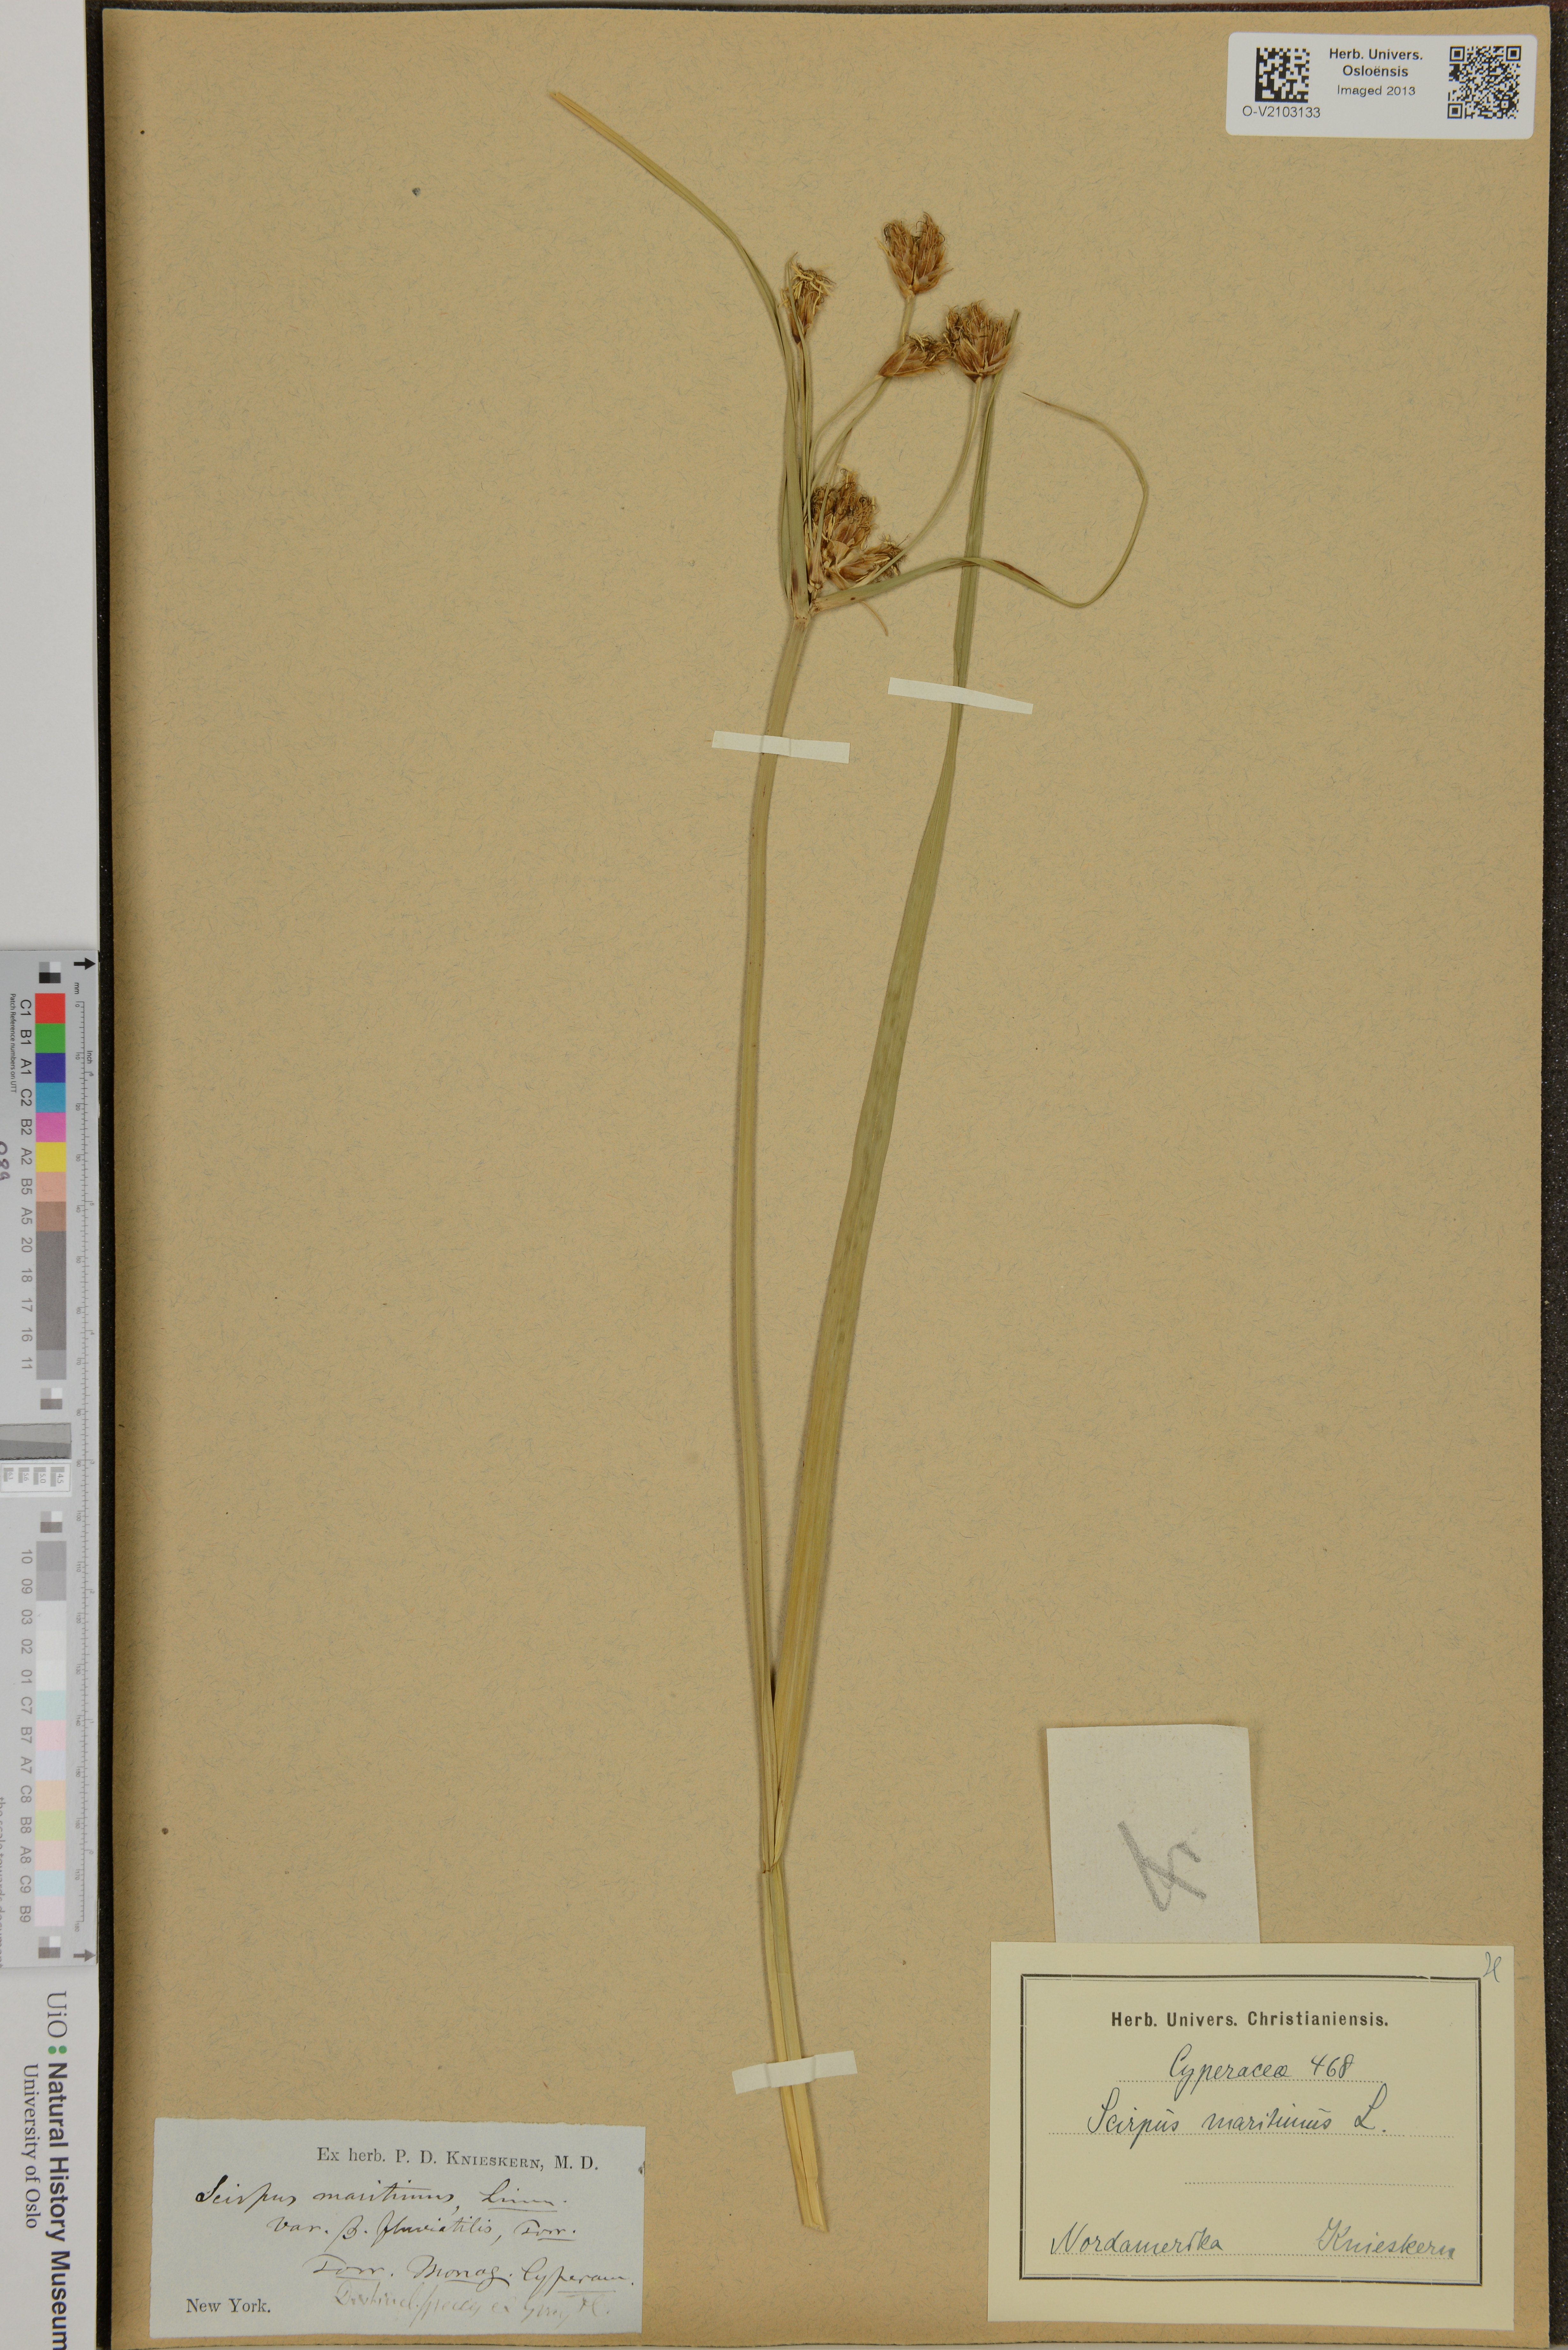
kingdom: Plantae
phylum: Tracheophyta
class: Liliopsida
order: Poales
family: Cyperaceae
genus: Bolboschoenus
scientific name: Bolboschoenus maritimus
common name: Sea club-rush
